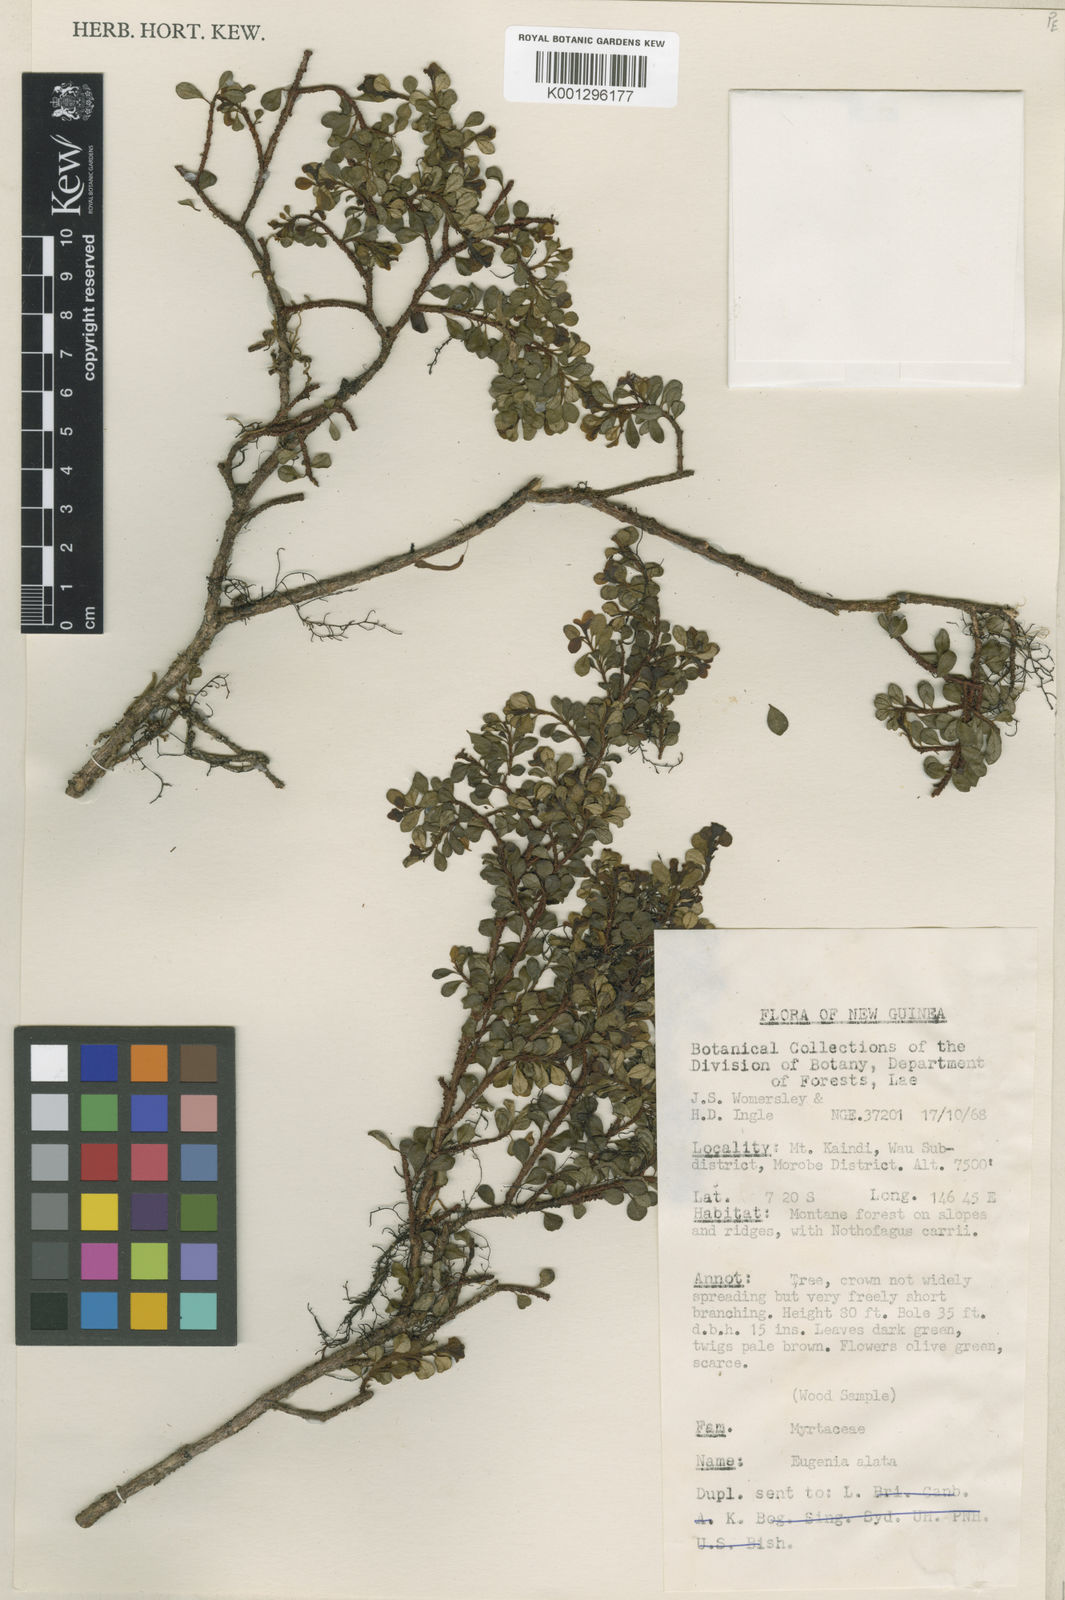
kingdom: Plantae
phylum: Tracheophyta
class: Magnoliopsida
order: Myrtales
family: Myrtaceae
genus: Syzygium
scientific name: Syzygium alatum
